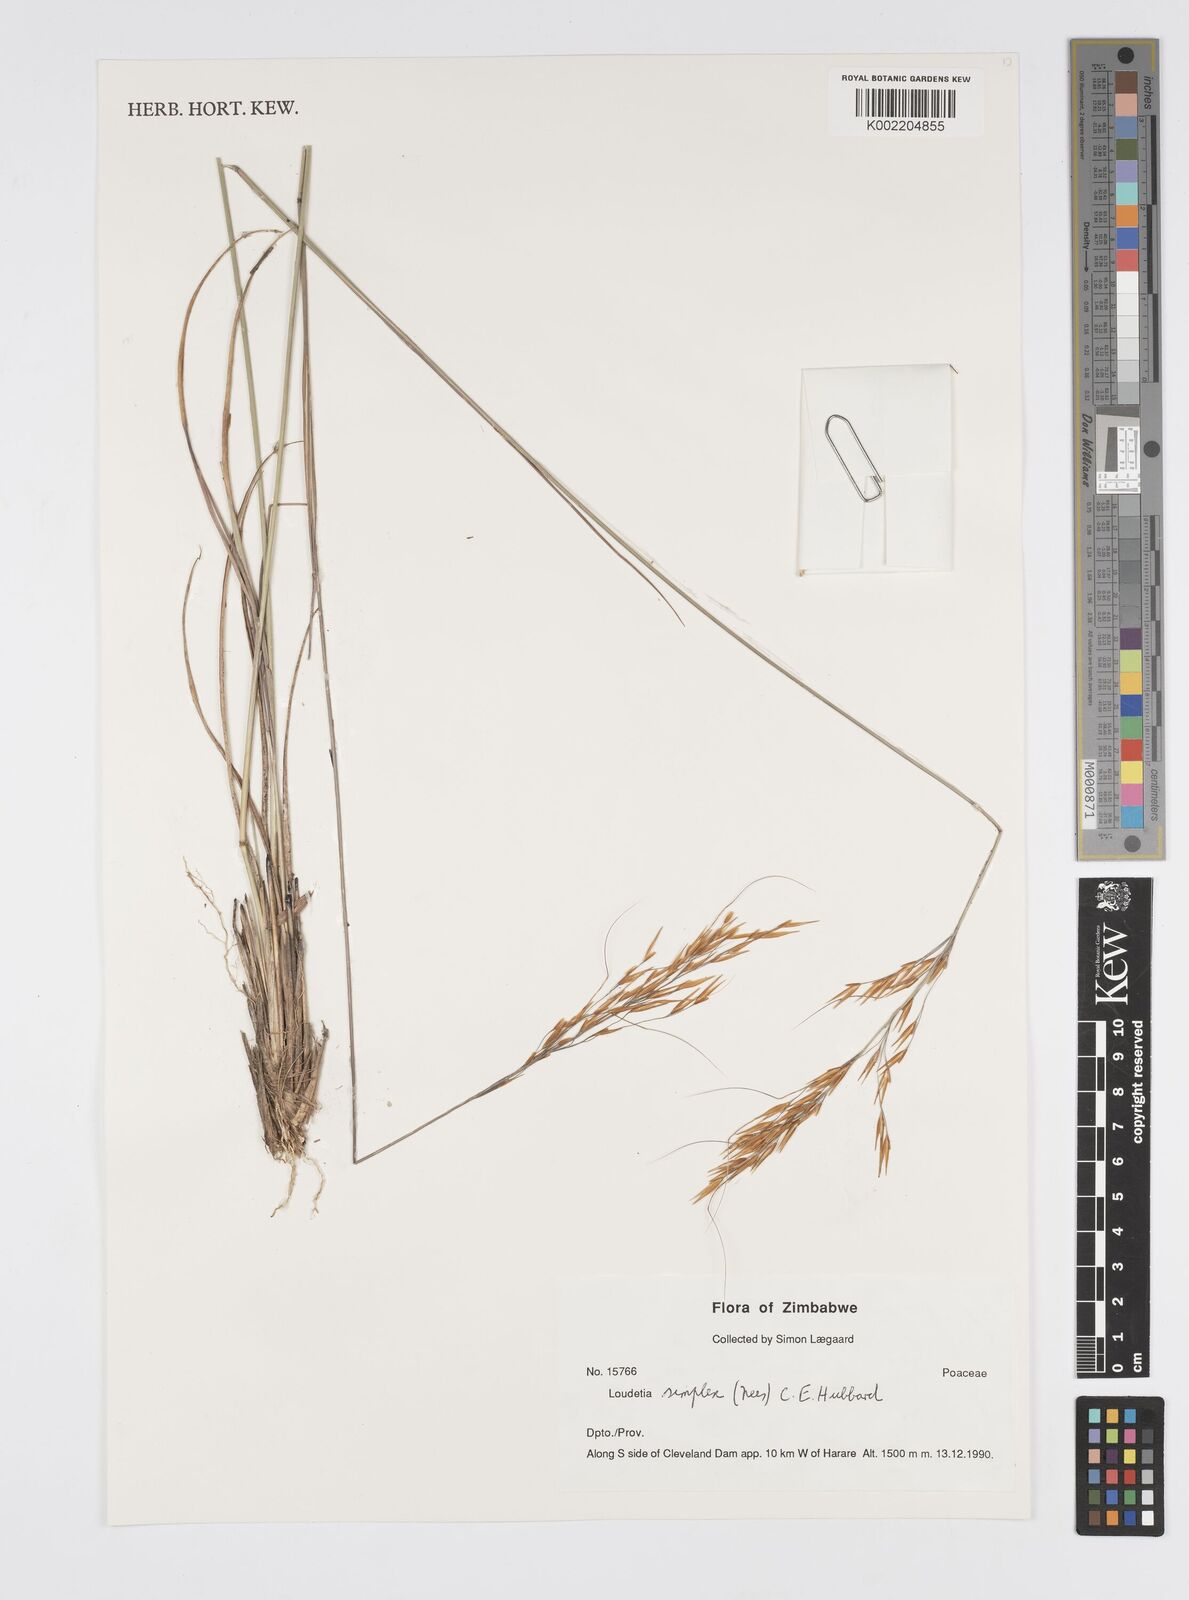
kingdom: Plantae
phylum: Tracheophyta
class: Liliopsida
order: Poales
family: Poaceae
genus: Loudetia
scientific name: Loudetia simplex
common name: Common russet grass
